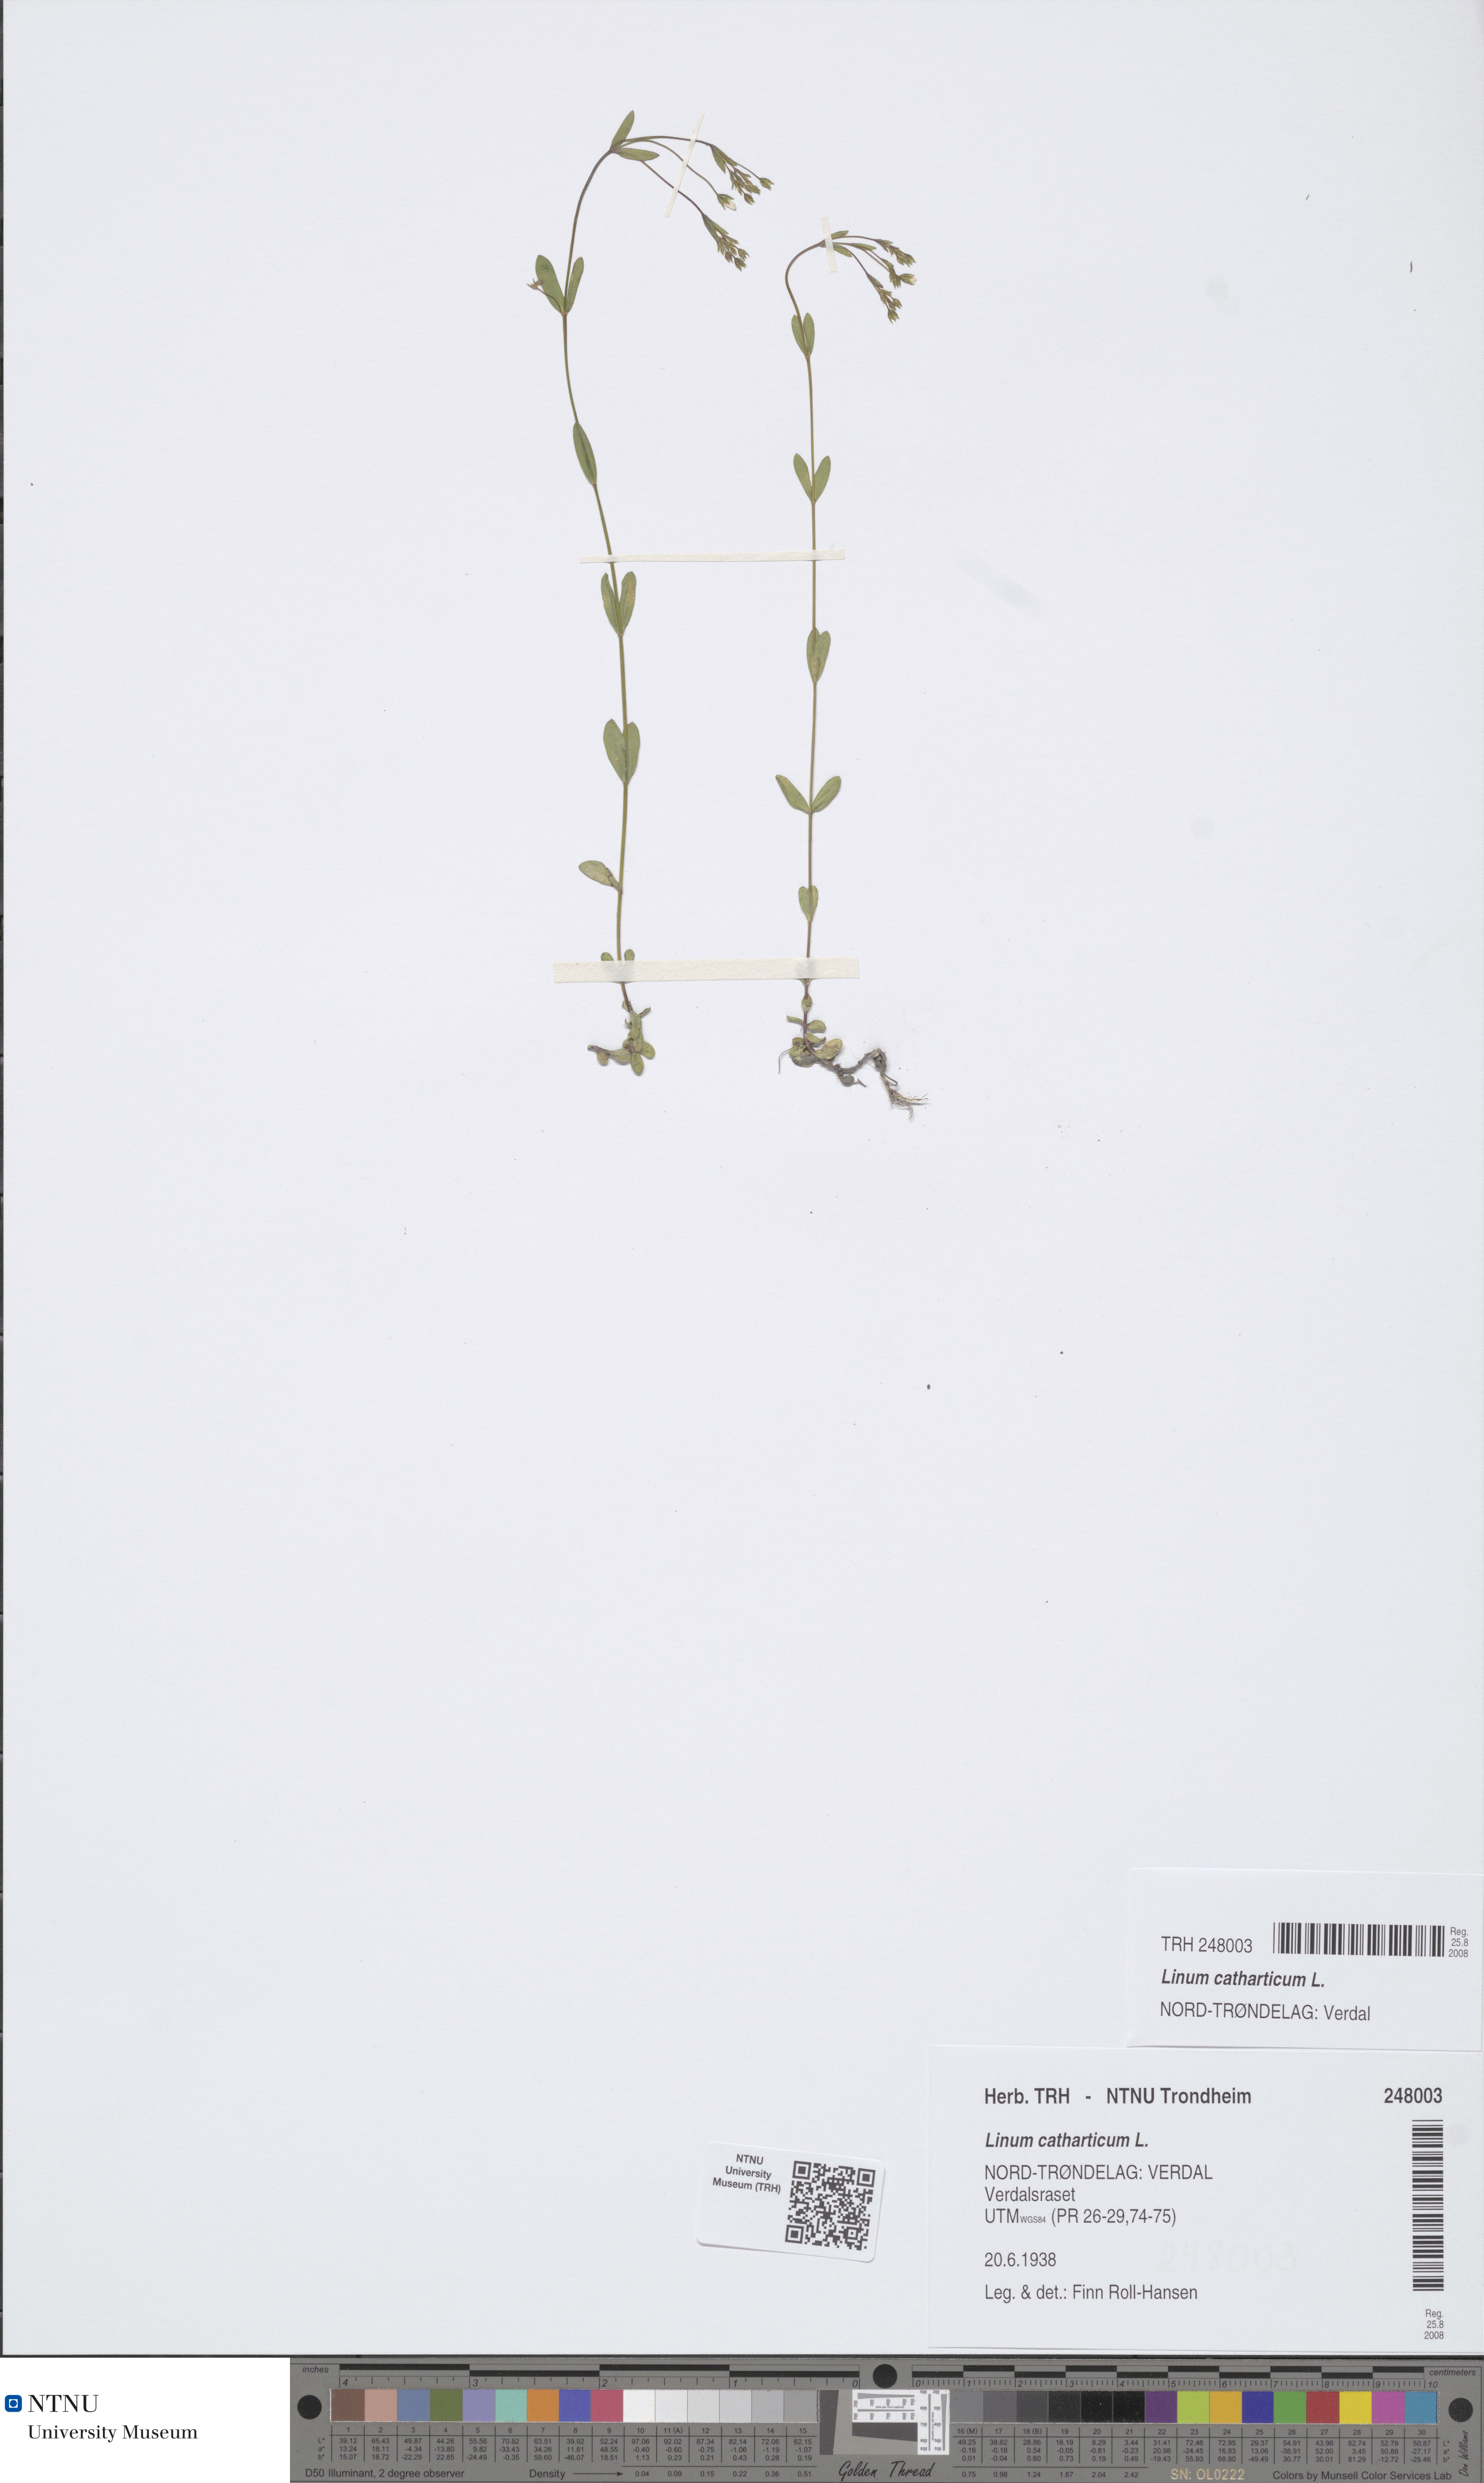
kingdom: Plantae
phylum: Tracheophyta
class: Magnoliopsida
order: Malpighiales
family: Linaceae
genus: Linum
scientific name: Linum catharticum
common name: Fairy flax
